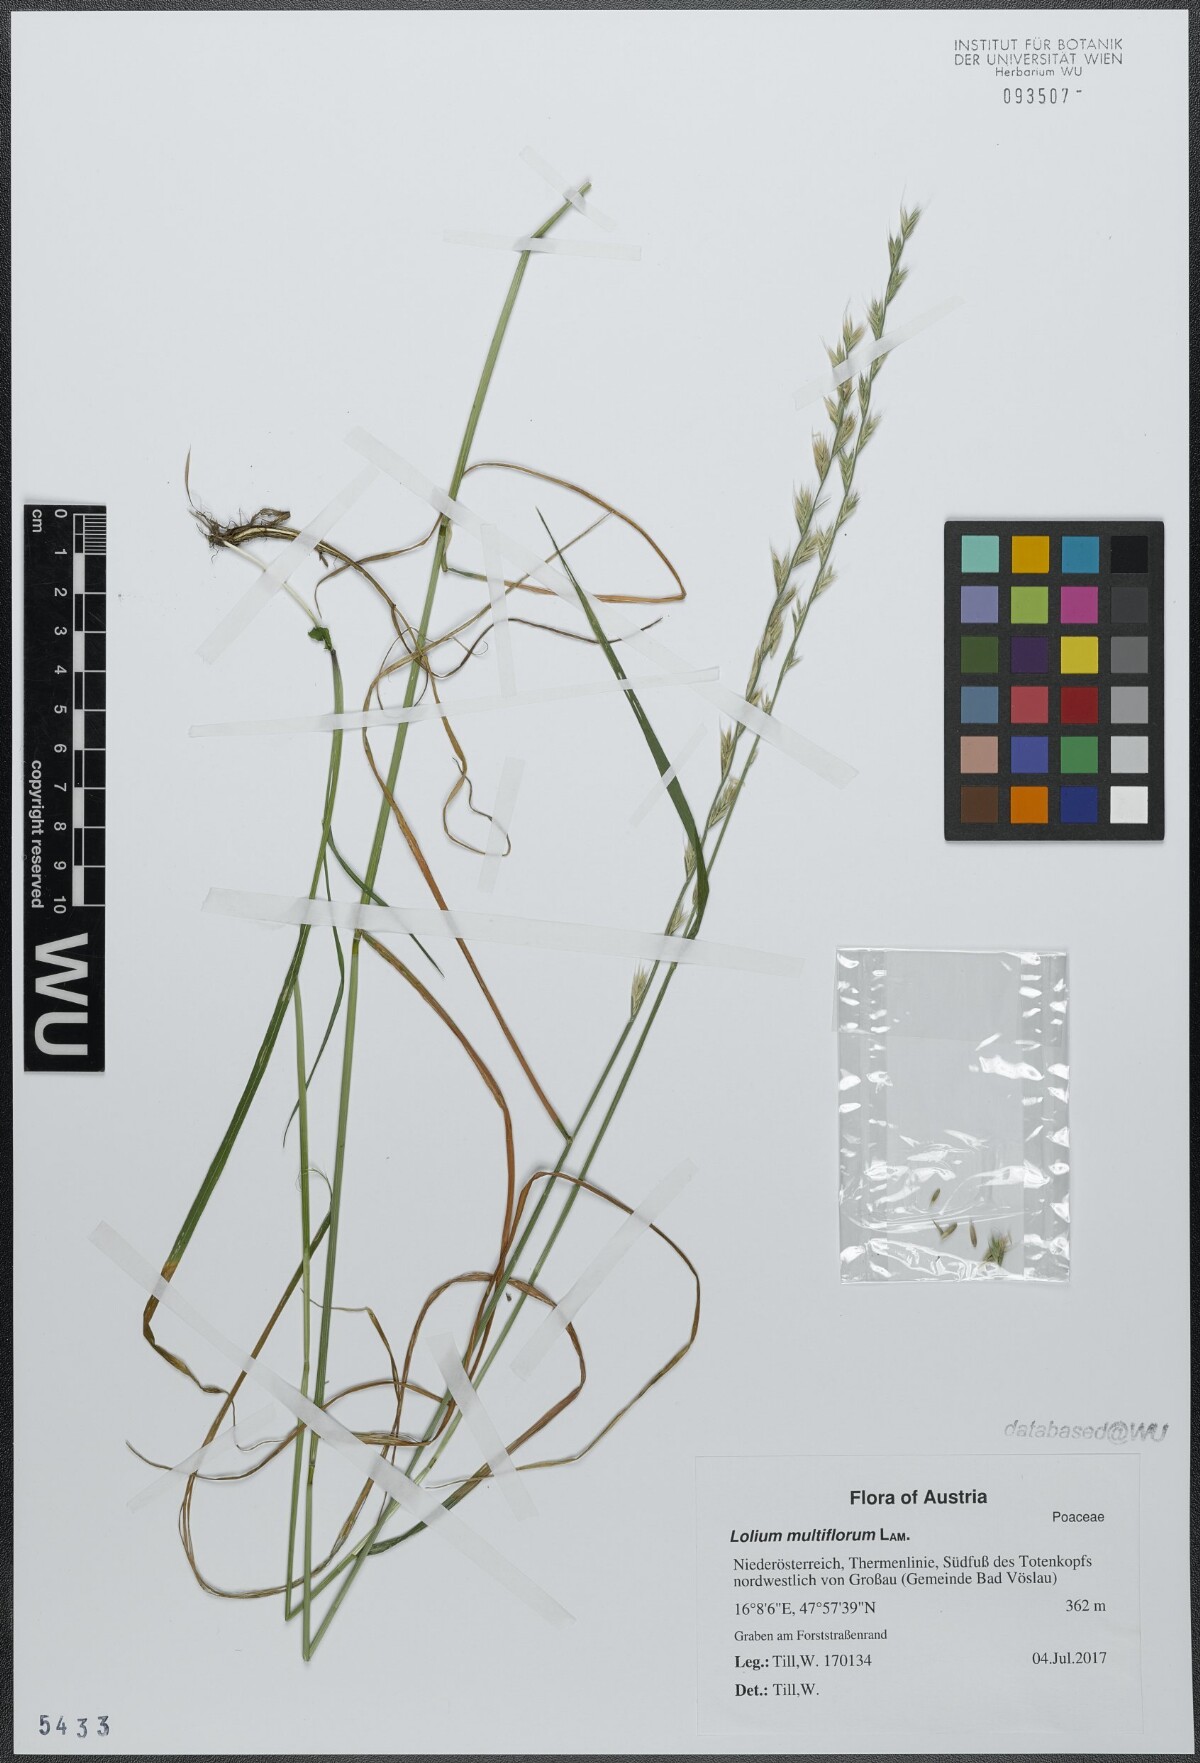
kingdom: Plantae
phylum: Tracheophyta
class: Liliopsida
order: Poales
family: Poaceae
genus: Lolium
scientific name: Lolium multiflorum
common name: Annual ryegrass
